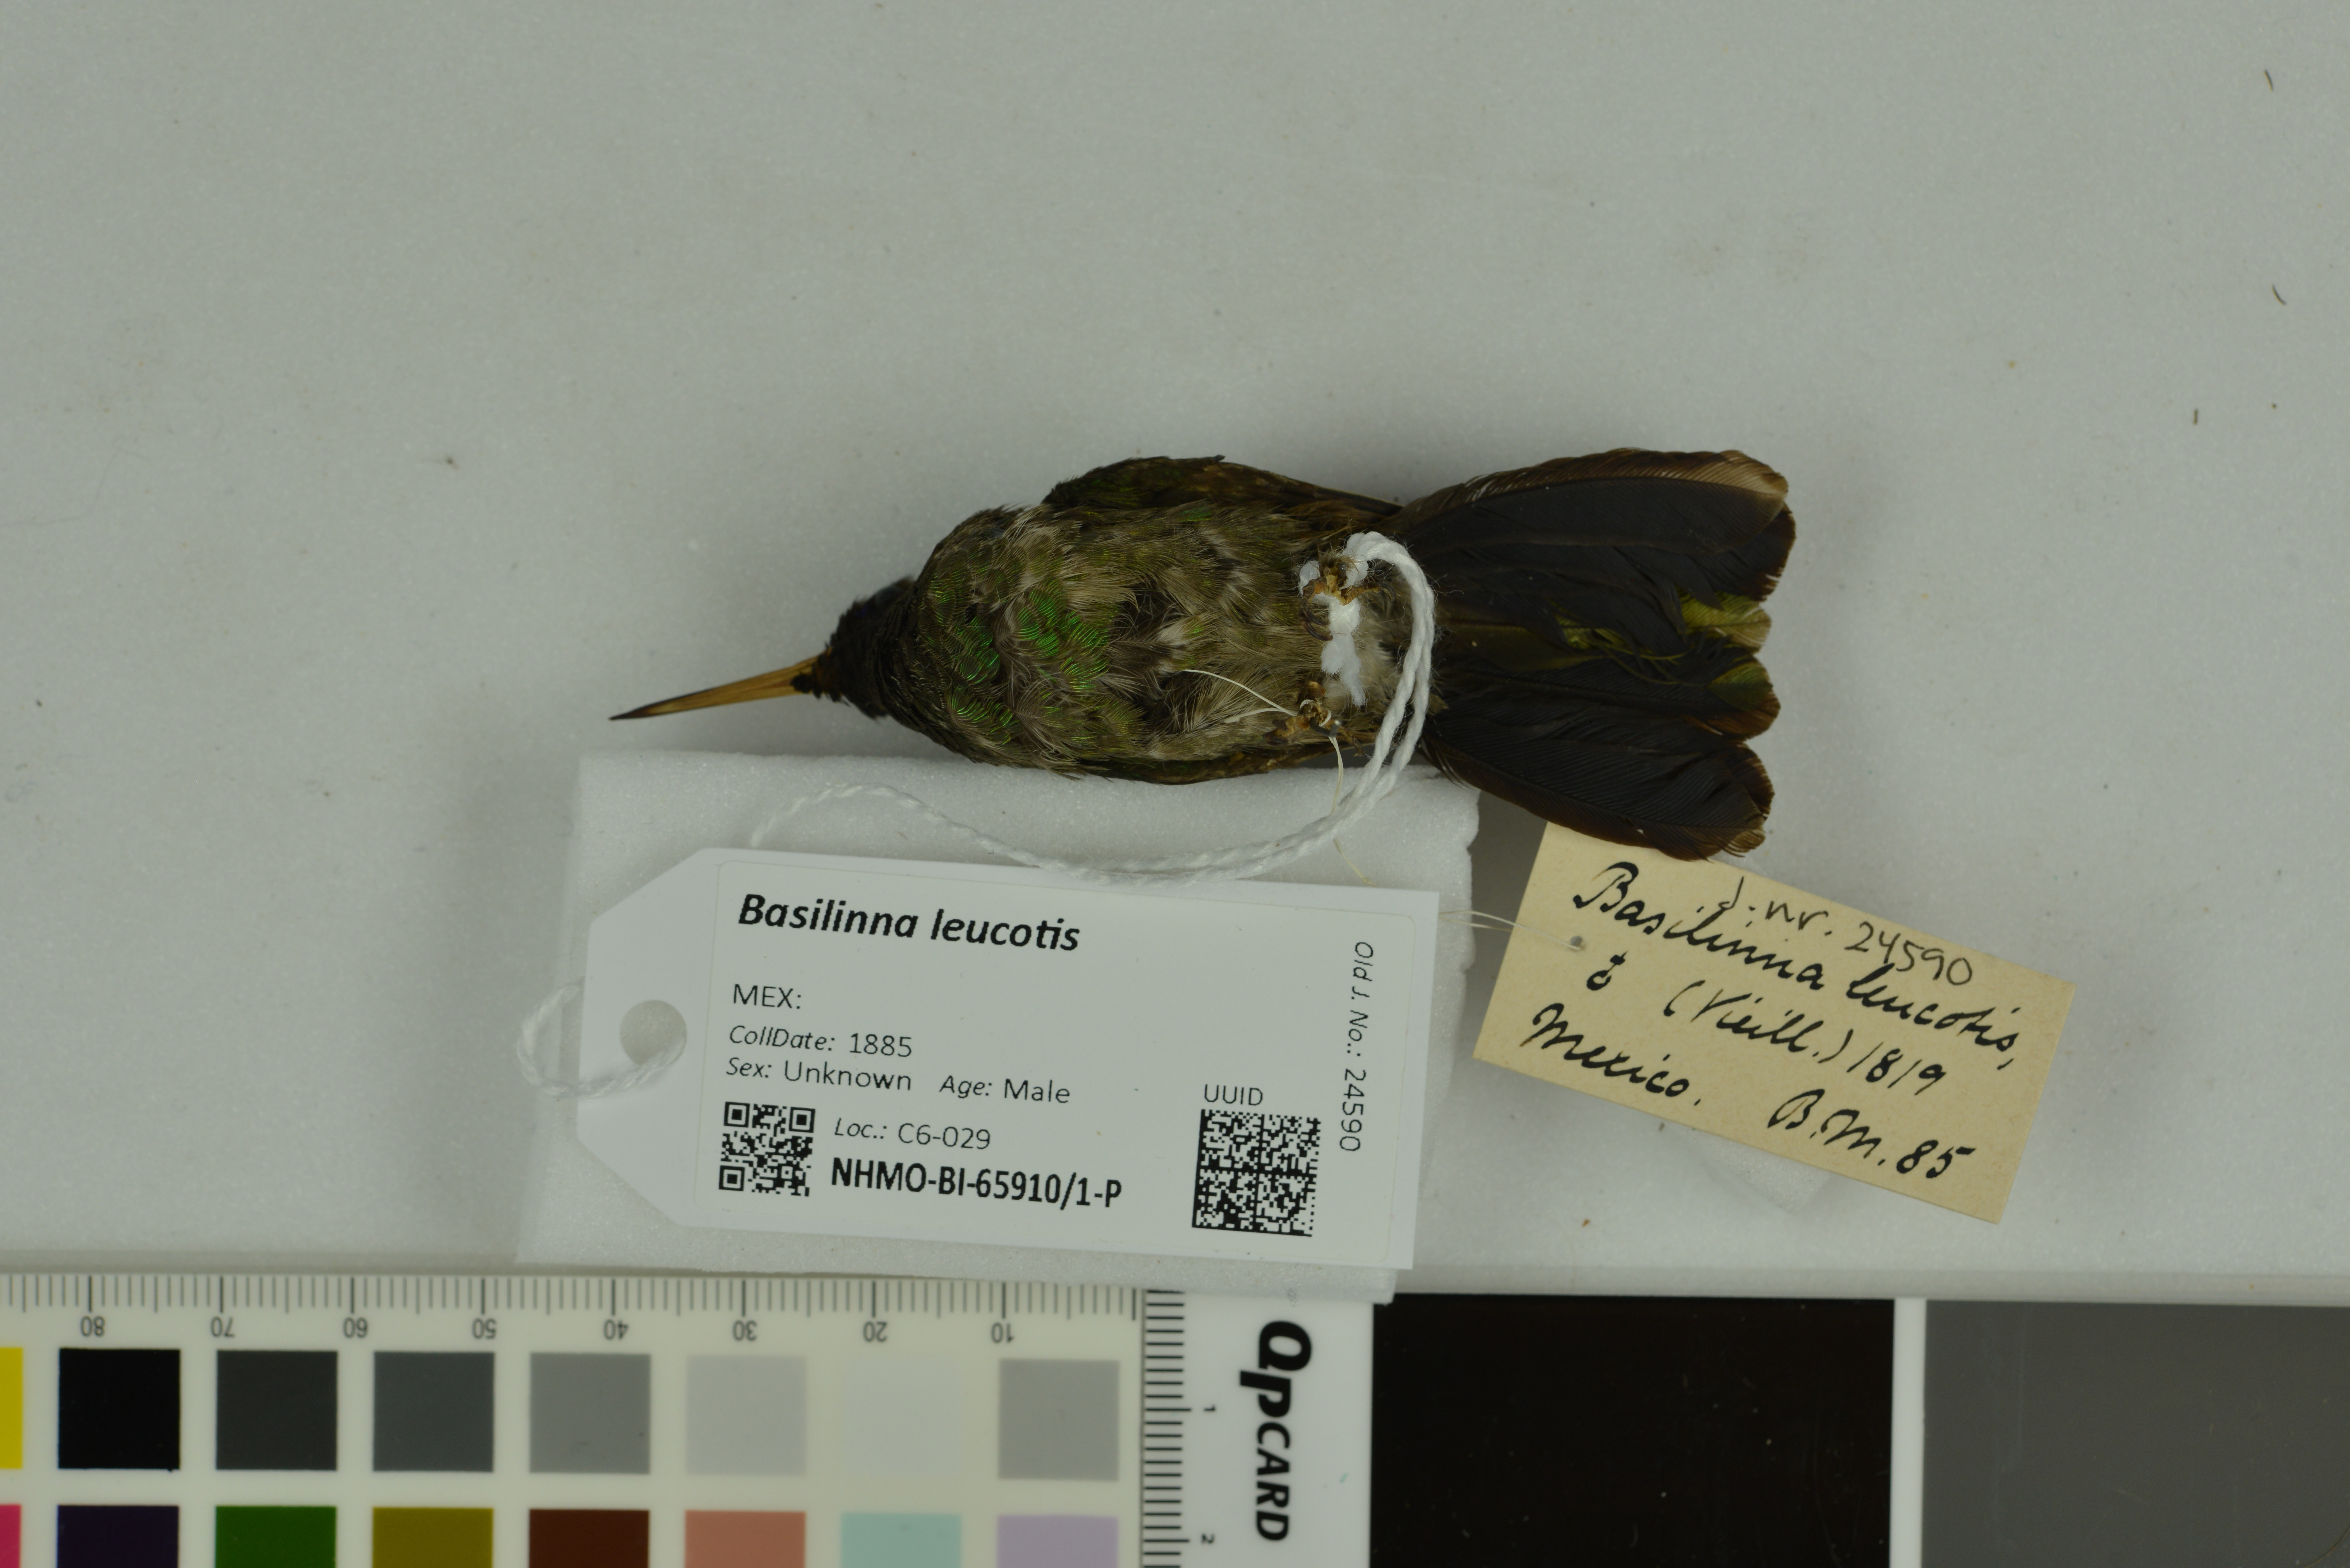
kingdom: Animalia
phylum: Chordata
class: Aves
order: Apodiformes
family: Trochilidae
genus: Basilinna
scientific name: Basilinna leucotis
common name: White-eared hummingbird
